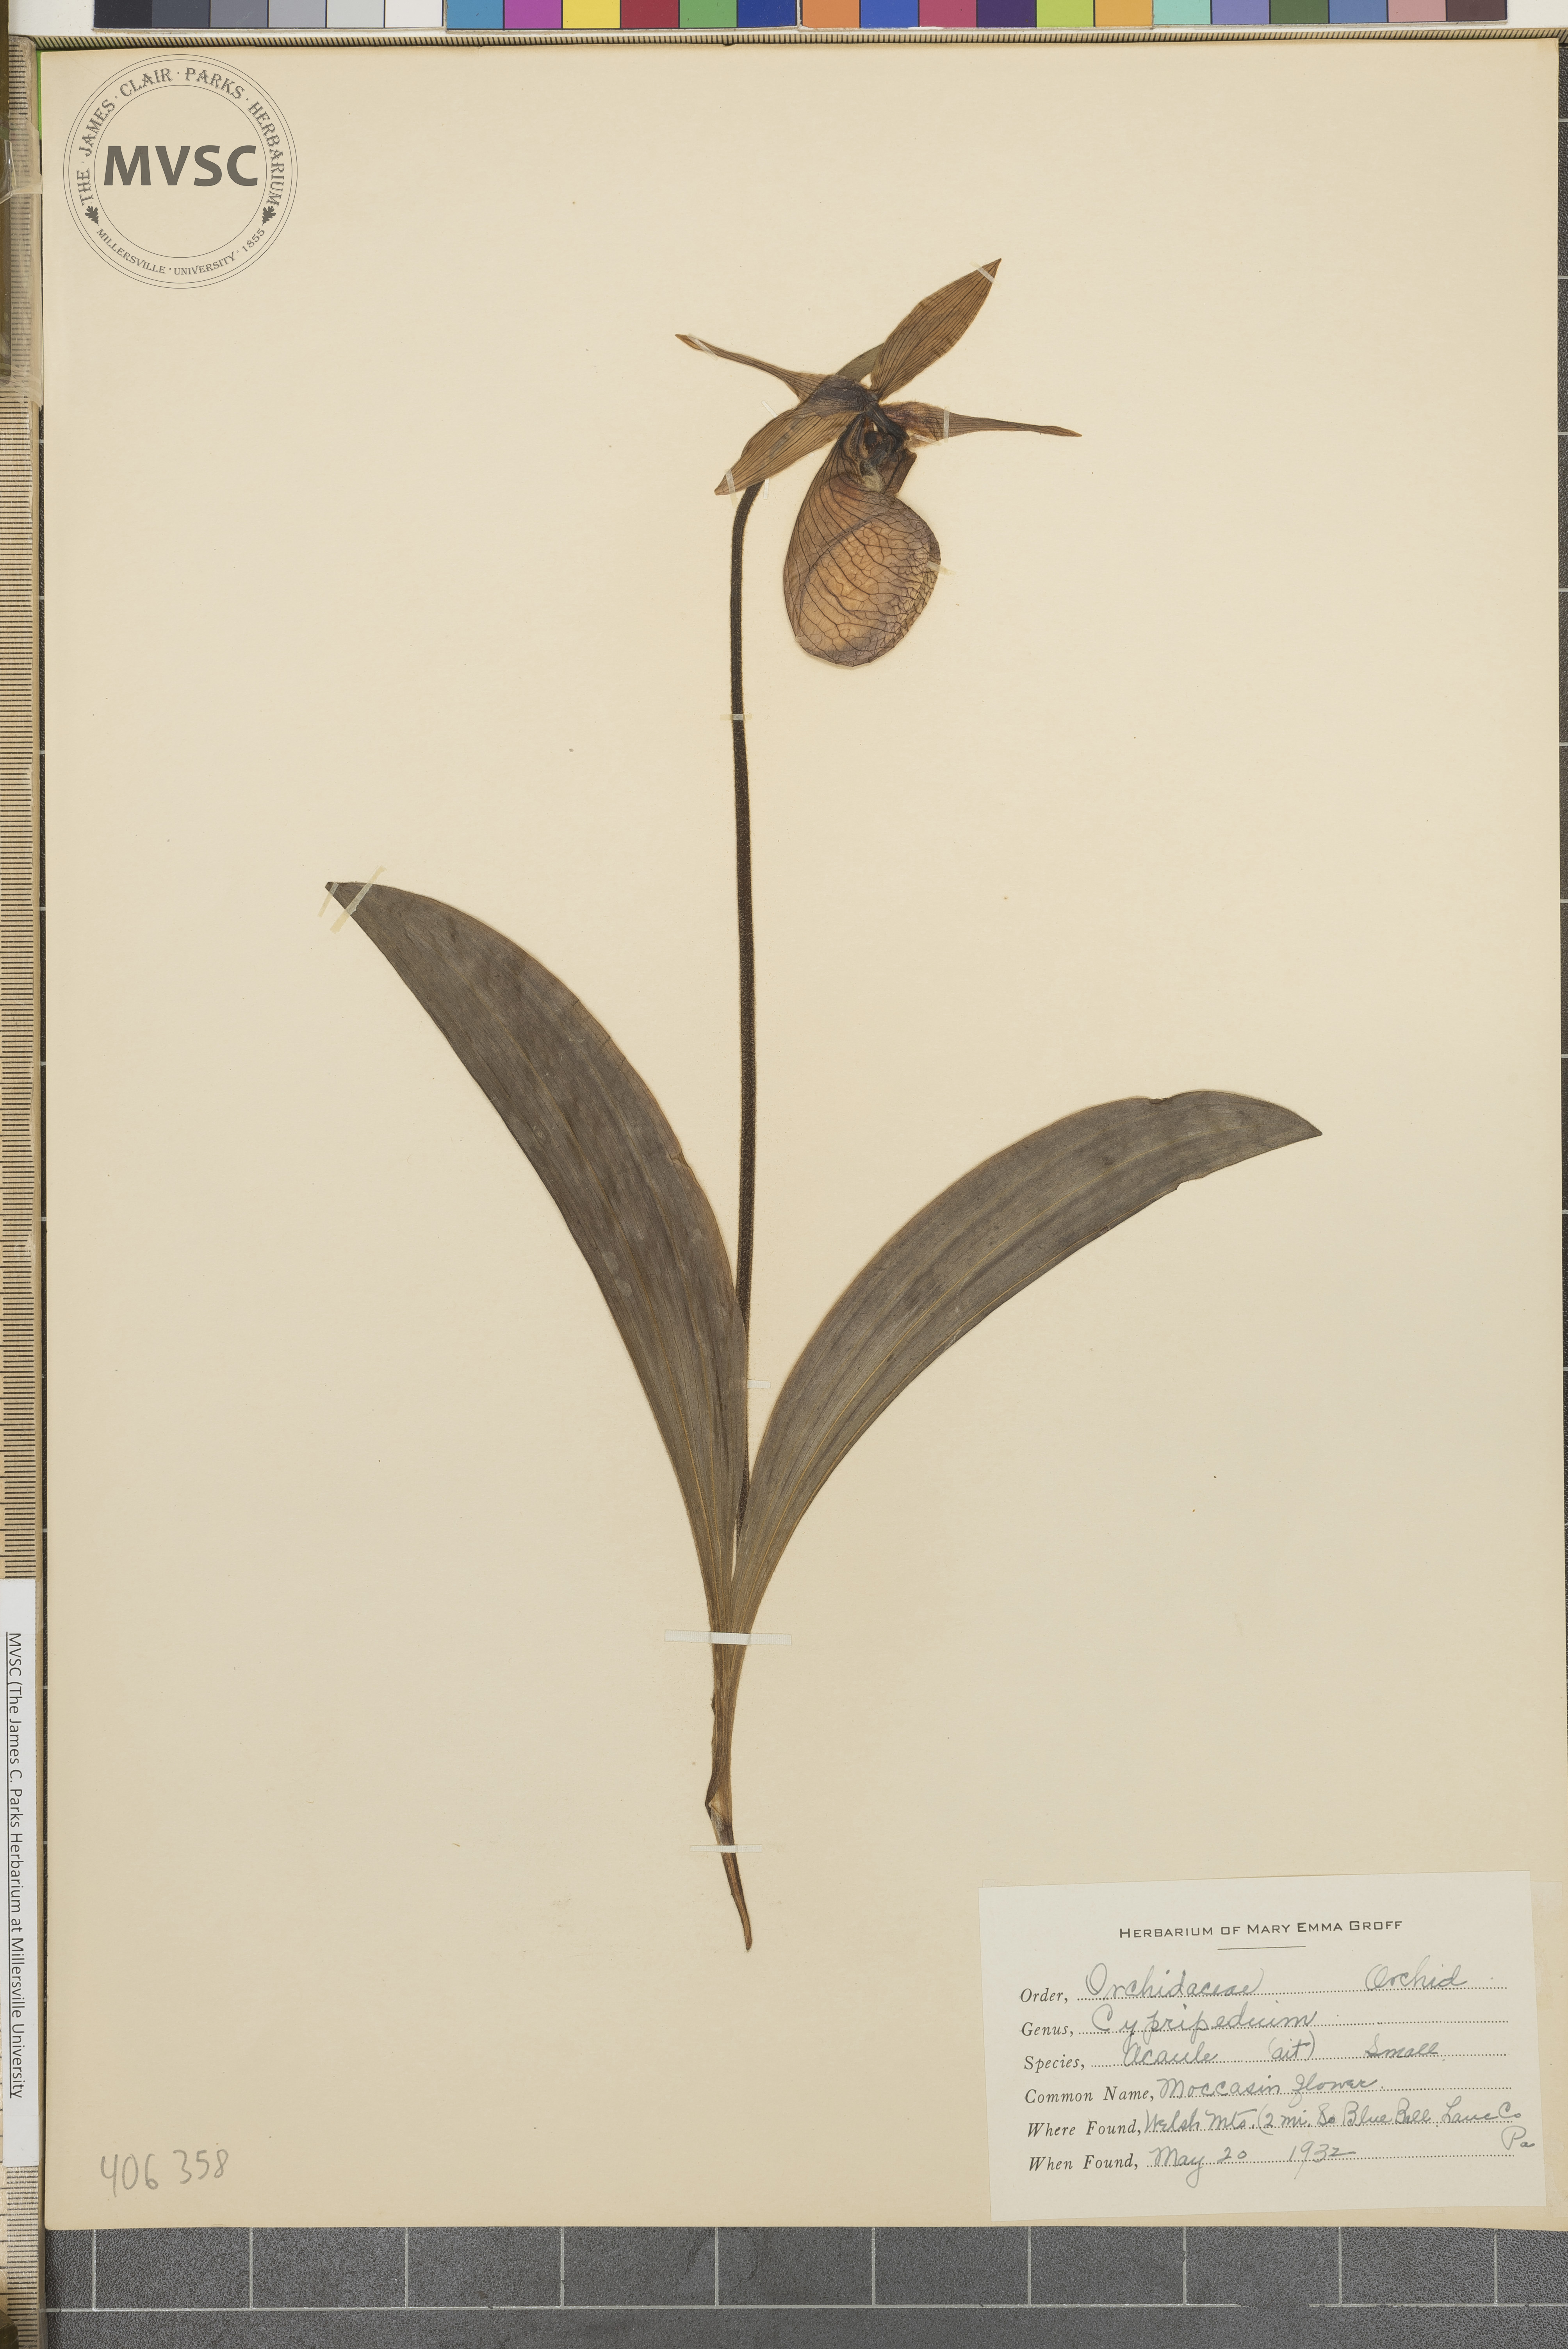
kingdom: Plantae
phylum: Tracheophyta
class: Liliopsida
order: Asparagales
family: Orchidaceae
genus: Cypripedium
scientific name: Cypripedium acaule
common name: Moccasin flower
